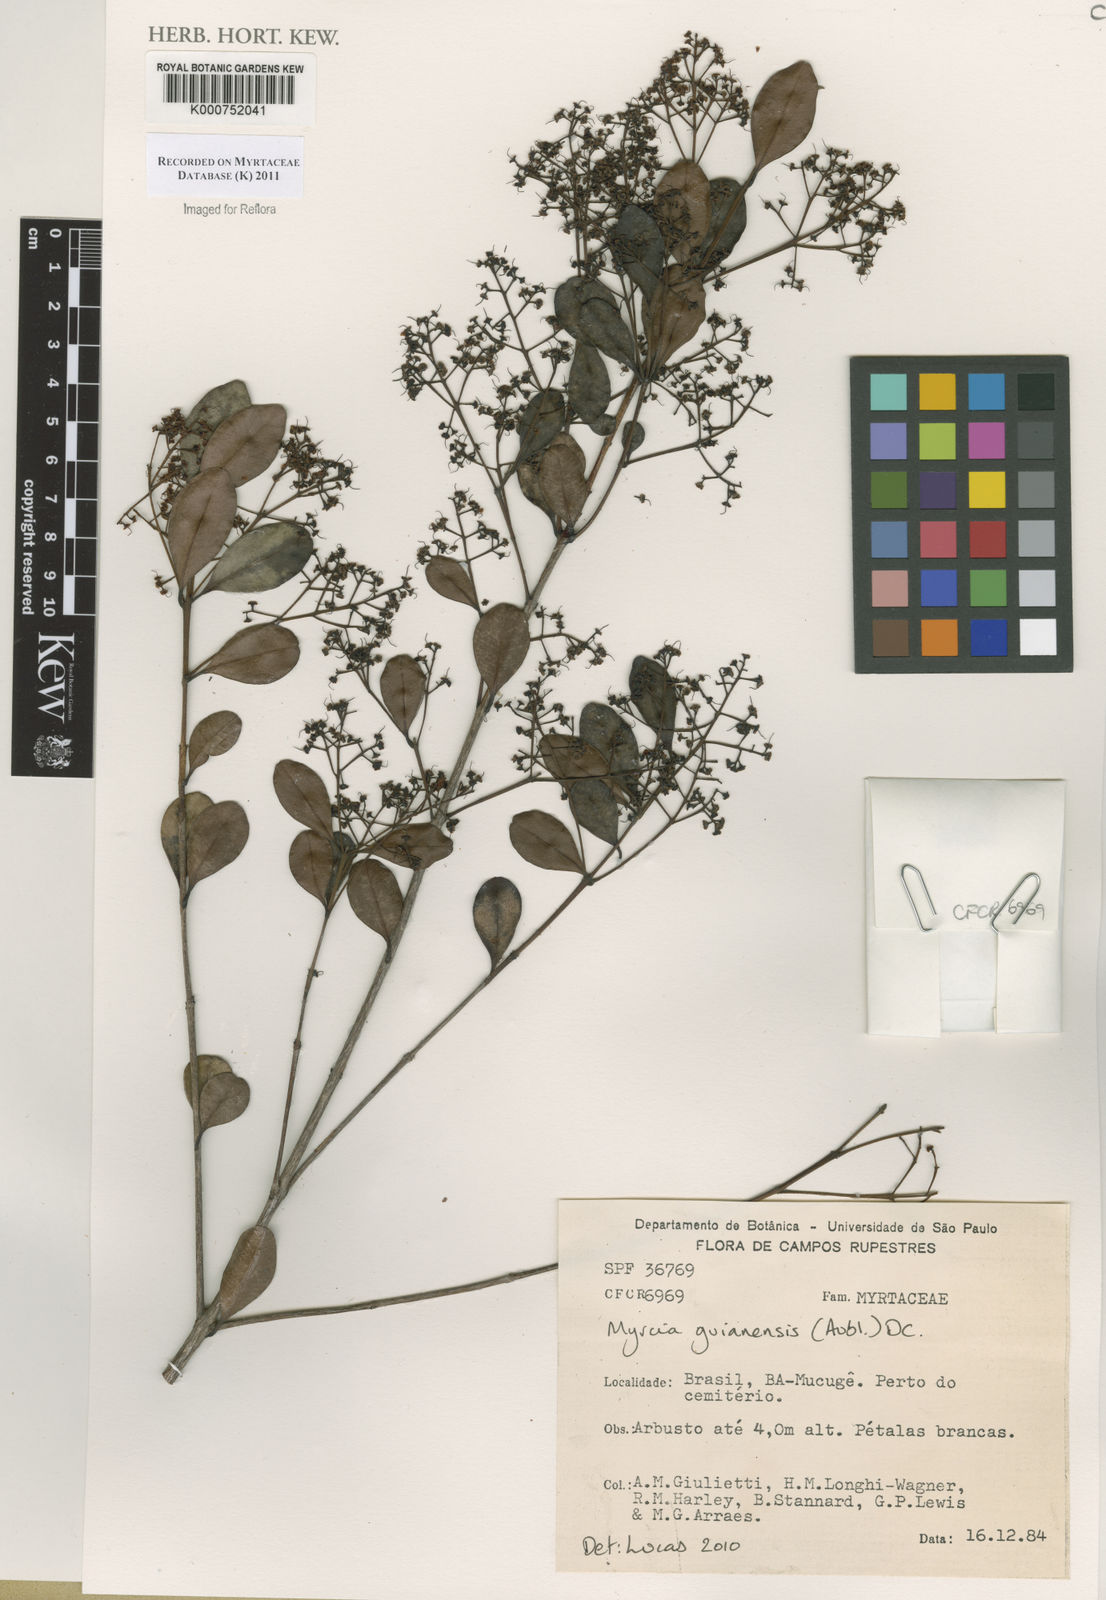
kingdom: Plantae
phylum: Tracheophyta
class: Magnoliopsida
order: Myrtales
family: Myrtaceae
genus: Myrcia
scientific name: Myrcia guianensis
